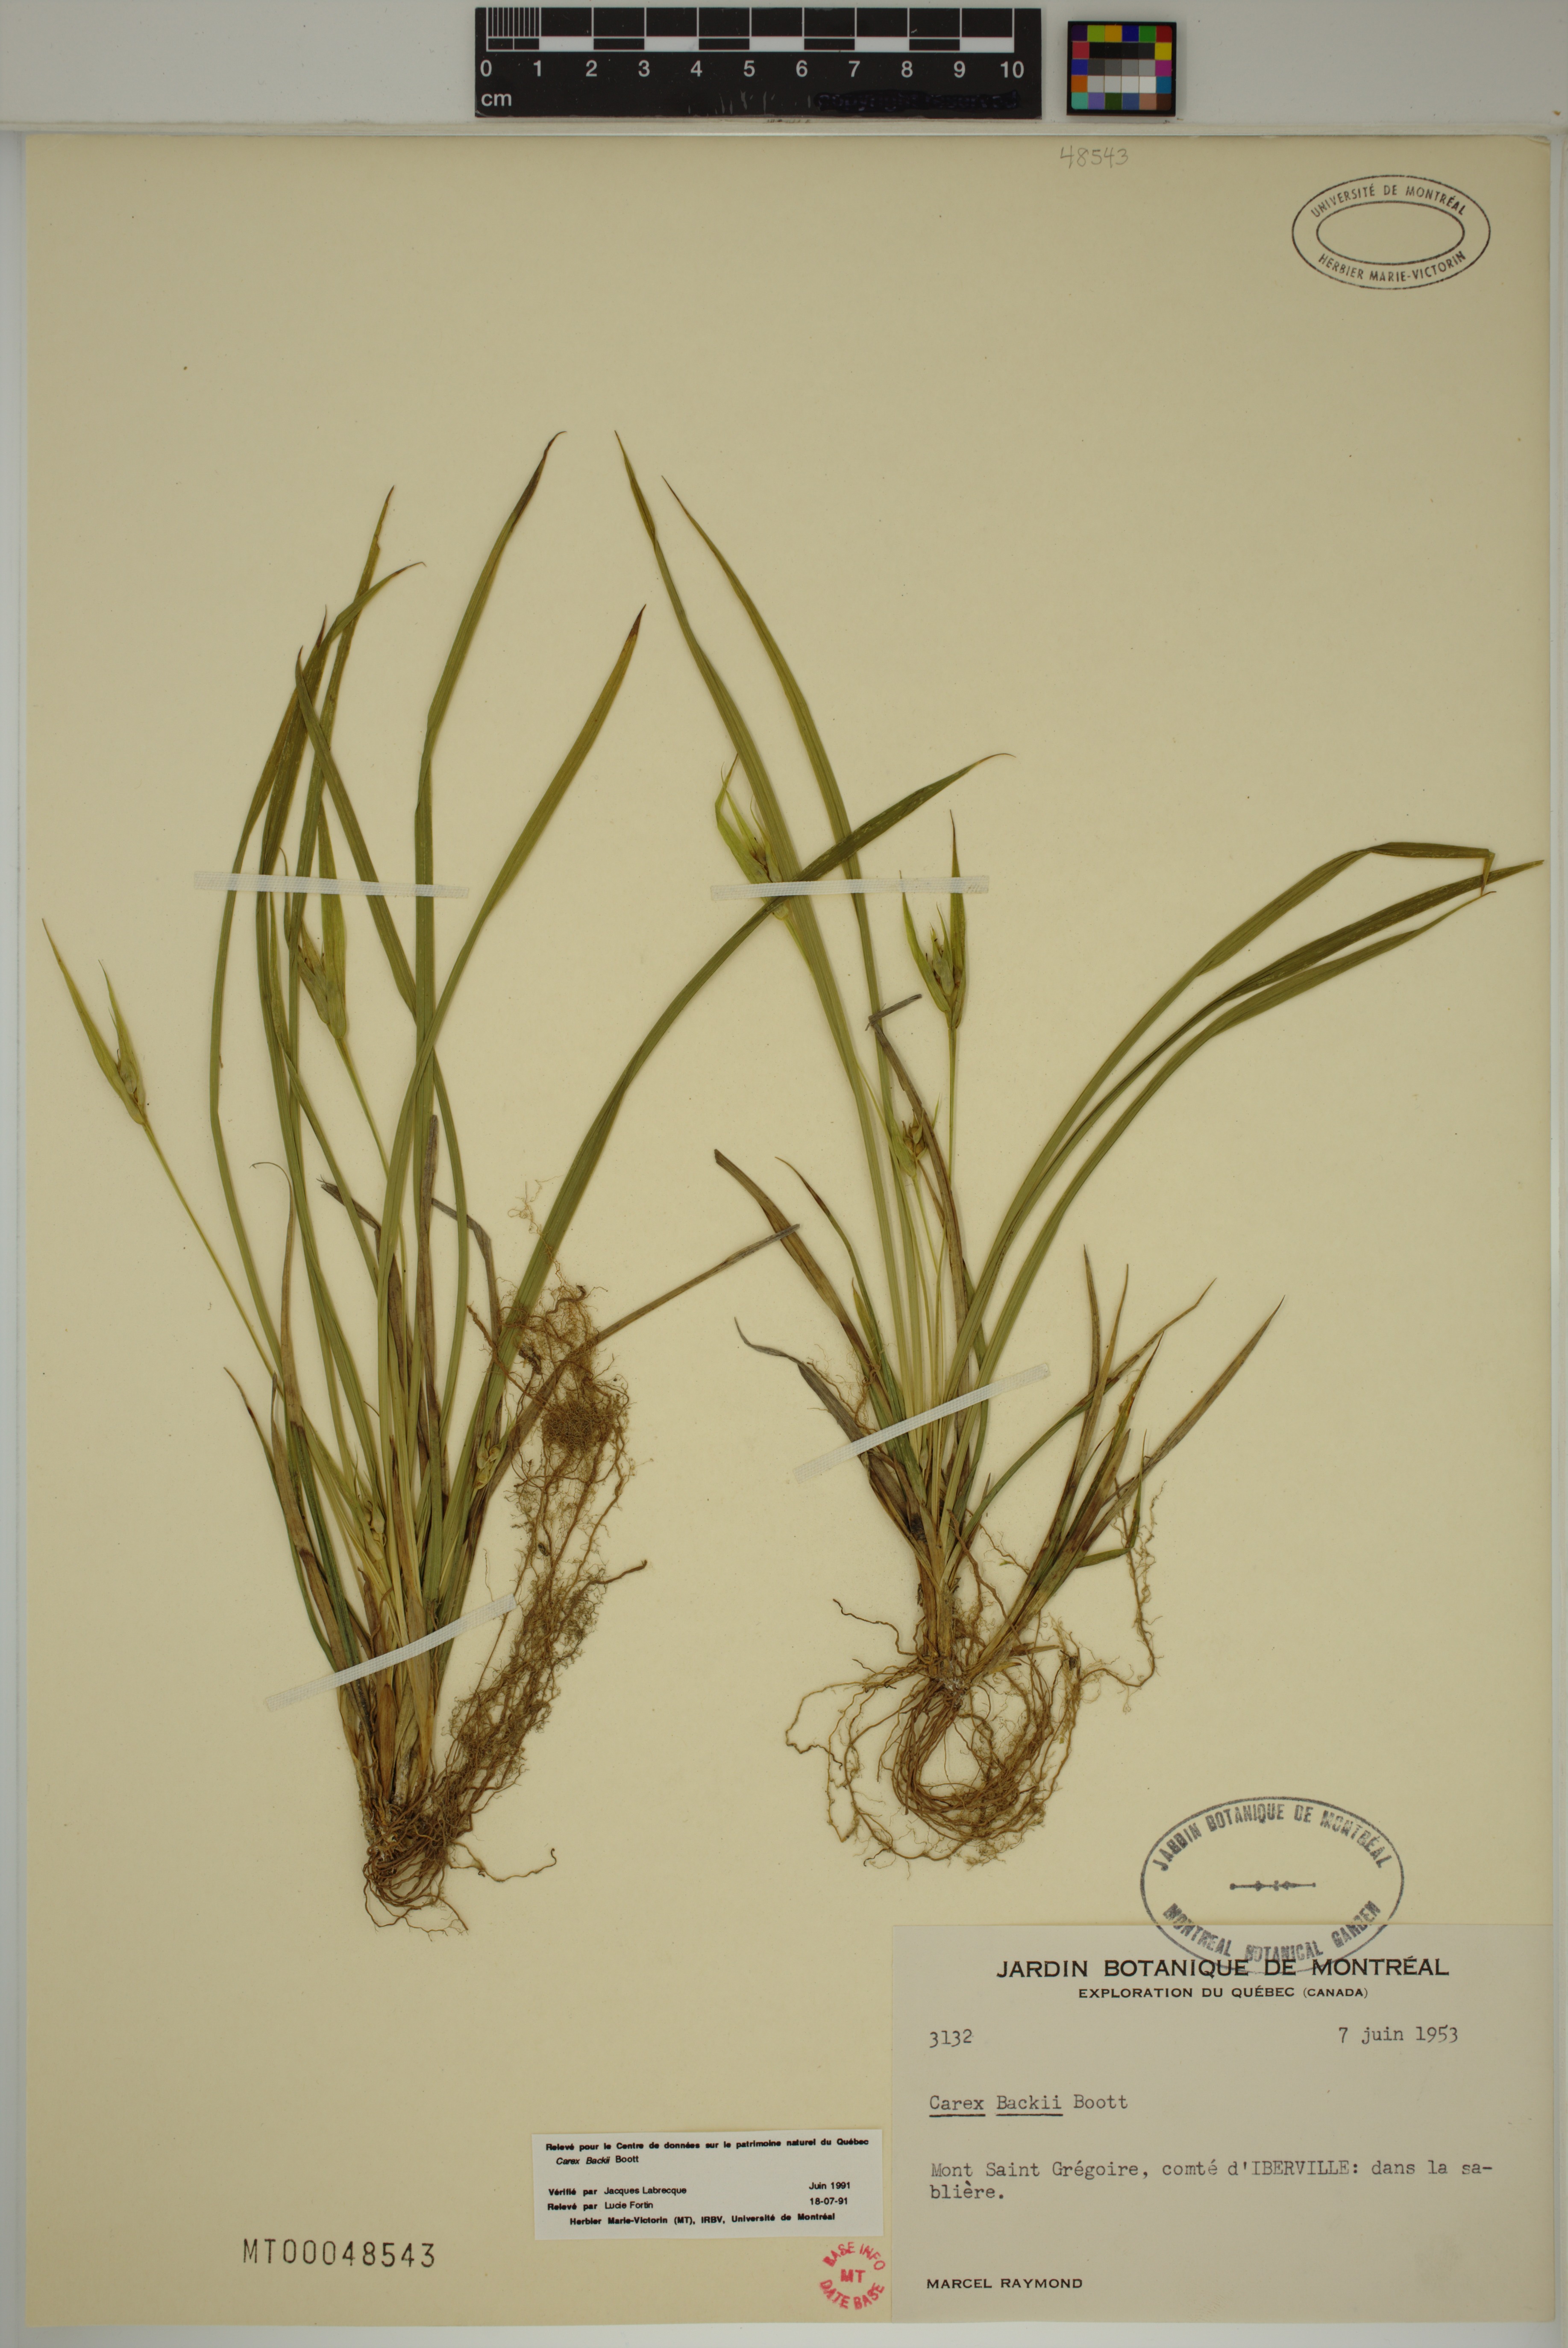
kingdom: Plantae
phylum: Tracheophyta
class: Liliopsida
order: Poales
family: Cyperaceae
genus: Carex
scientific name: Carex backii
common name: Back's sedge
